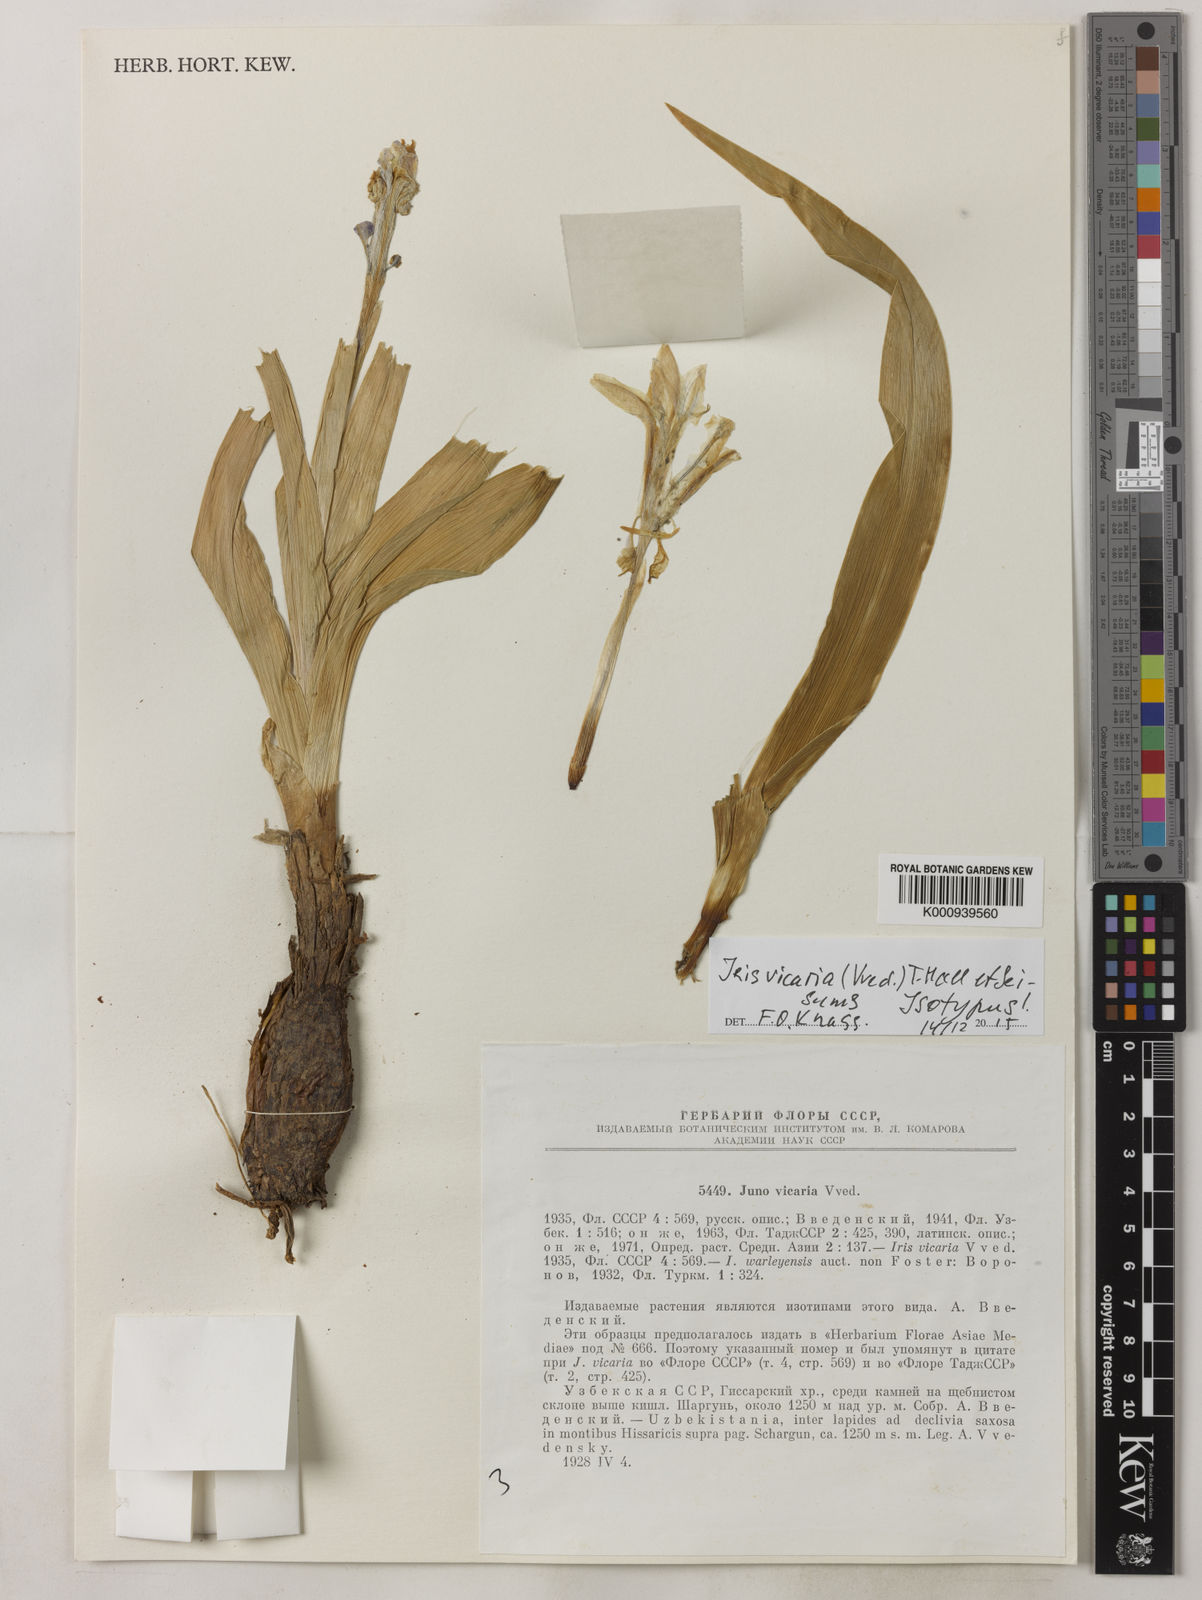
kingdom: Plantae
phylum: Tracheophyta
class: Liliopsida
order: Asparagales
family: Iridaceae
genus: Iris
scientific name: Iris
